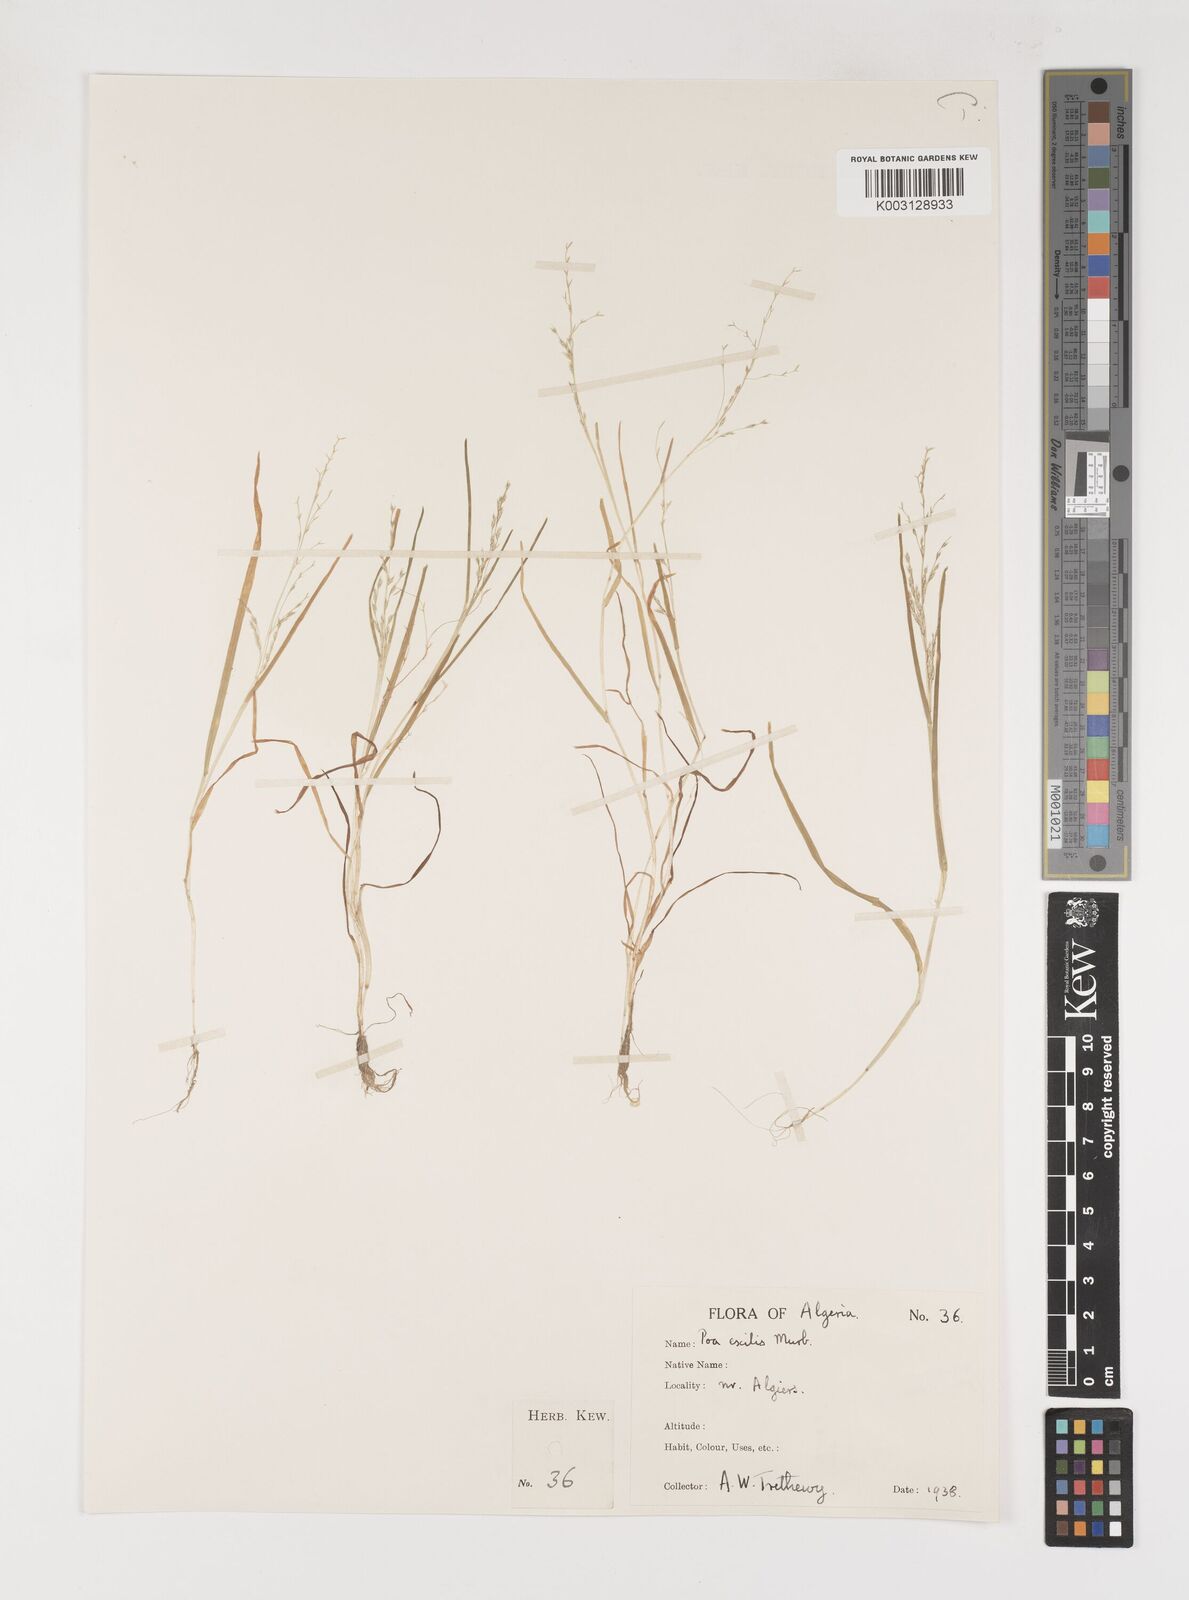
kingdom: Plantae
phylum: Tracheophyta
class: Liliopsida
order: Poales
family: Poaceae
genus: Poa
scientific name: Poa infirma
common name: Weak bluegrass
